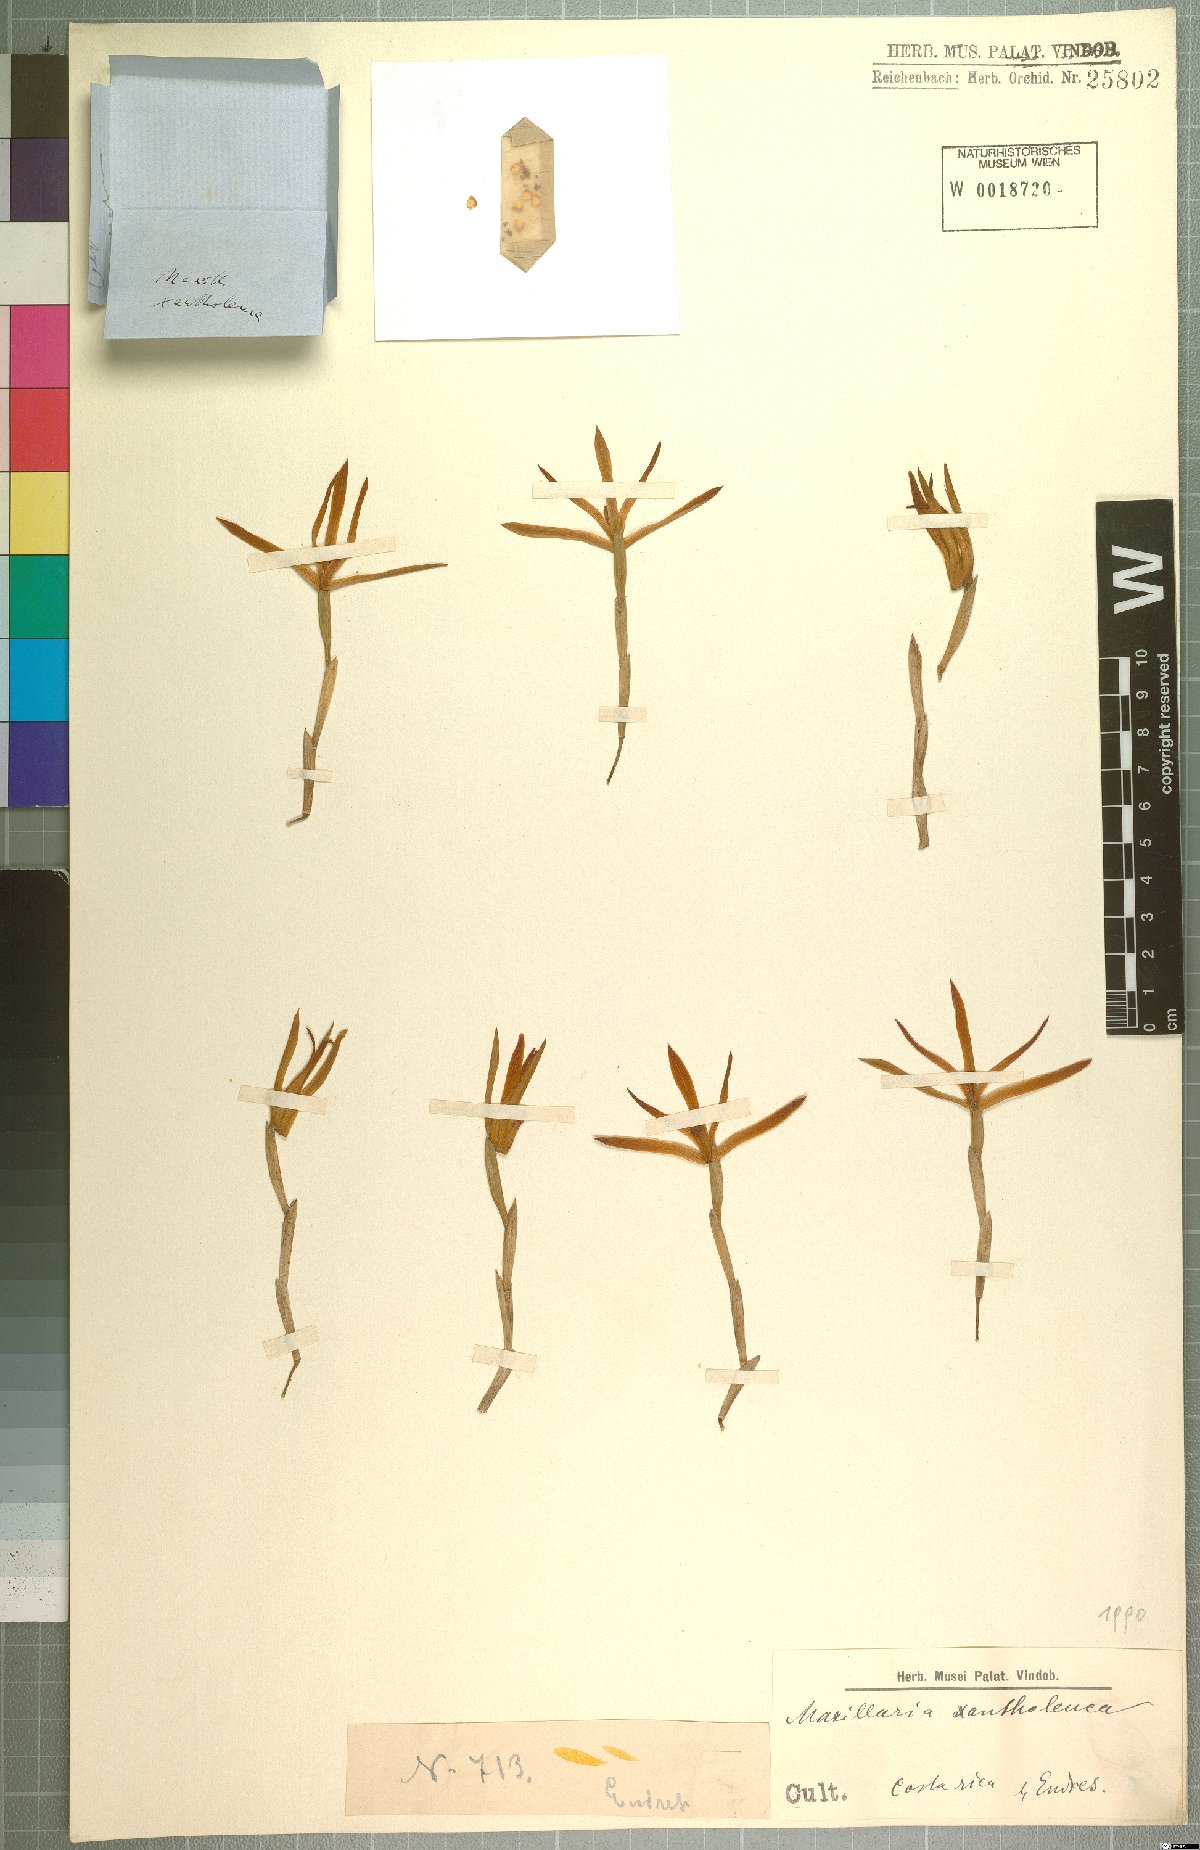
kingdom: Plantae
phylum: Tracheophyta
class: Liliopsida
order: Asparagales
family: Orchidaceae
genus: Maxillaria
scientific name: Maxillaria xantholeuca
